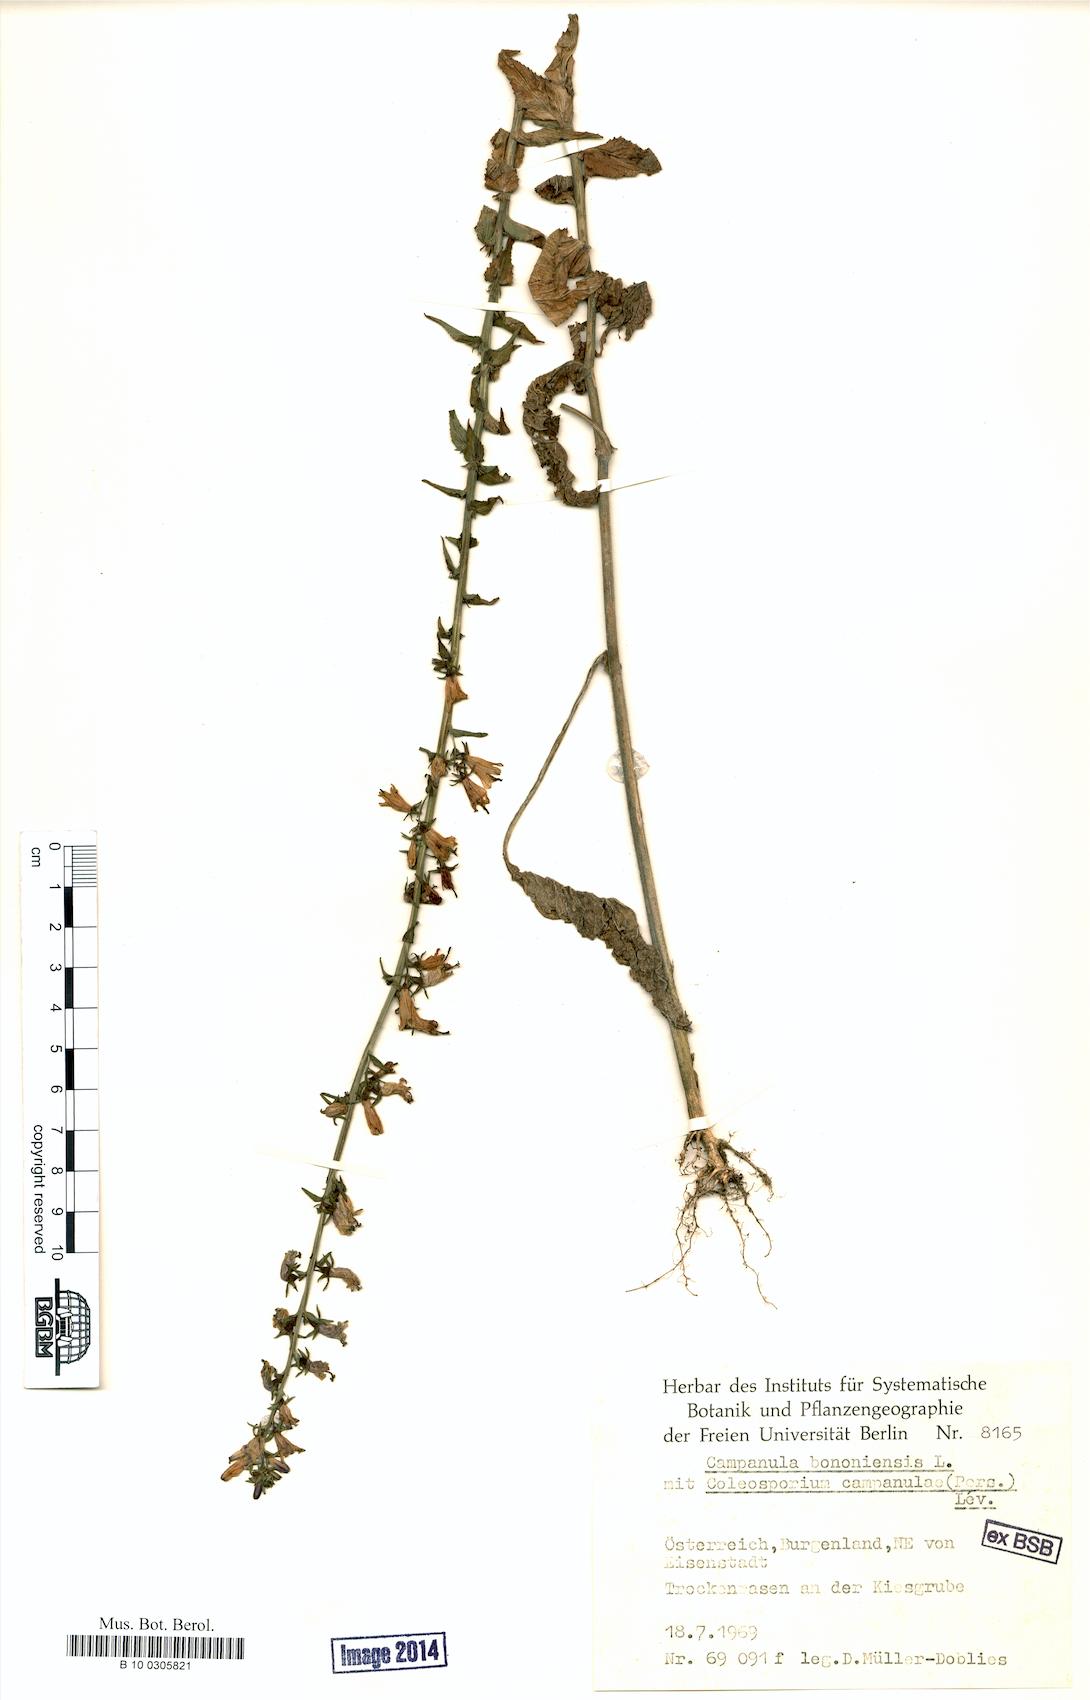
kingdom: Plantae
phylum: Tracheophyta
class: Magnoliopsida
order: Asterales
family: Campanulaceae
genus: Campanula
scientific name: Campanula bononiensis
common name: Pale bellflower
